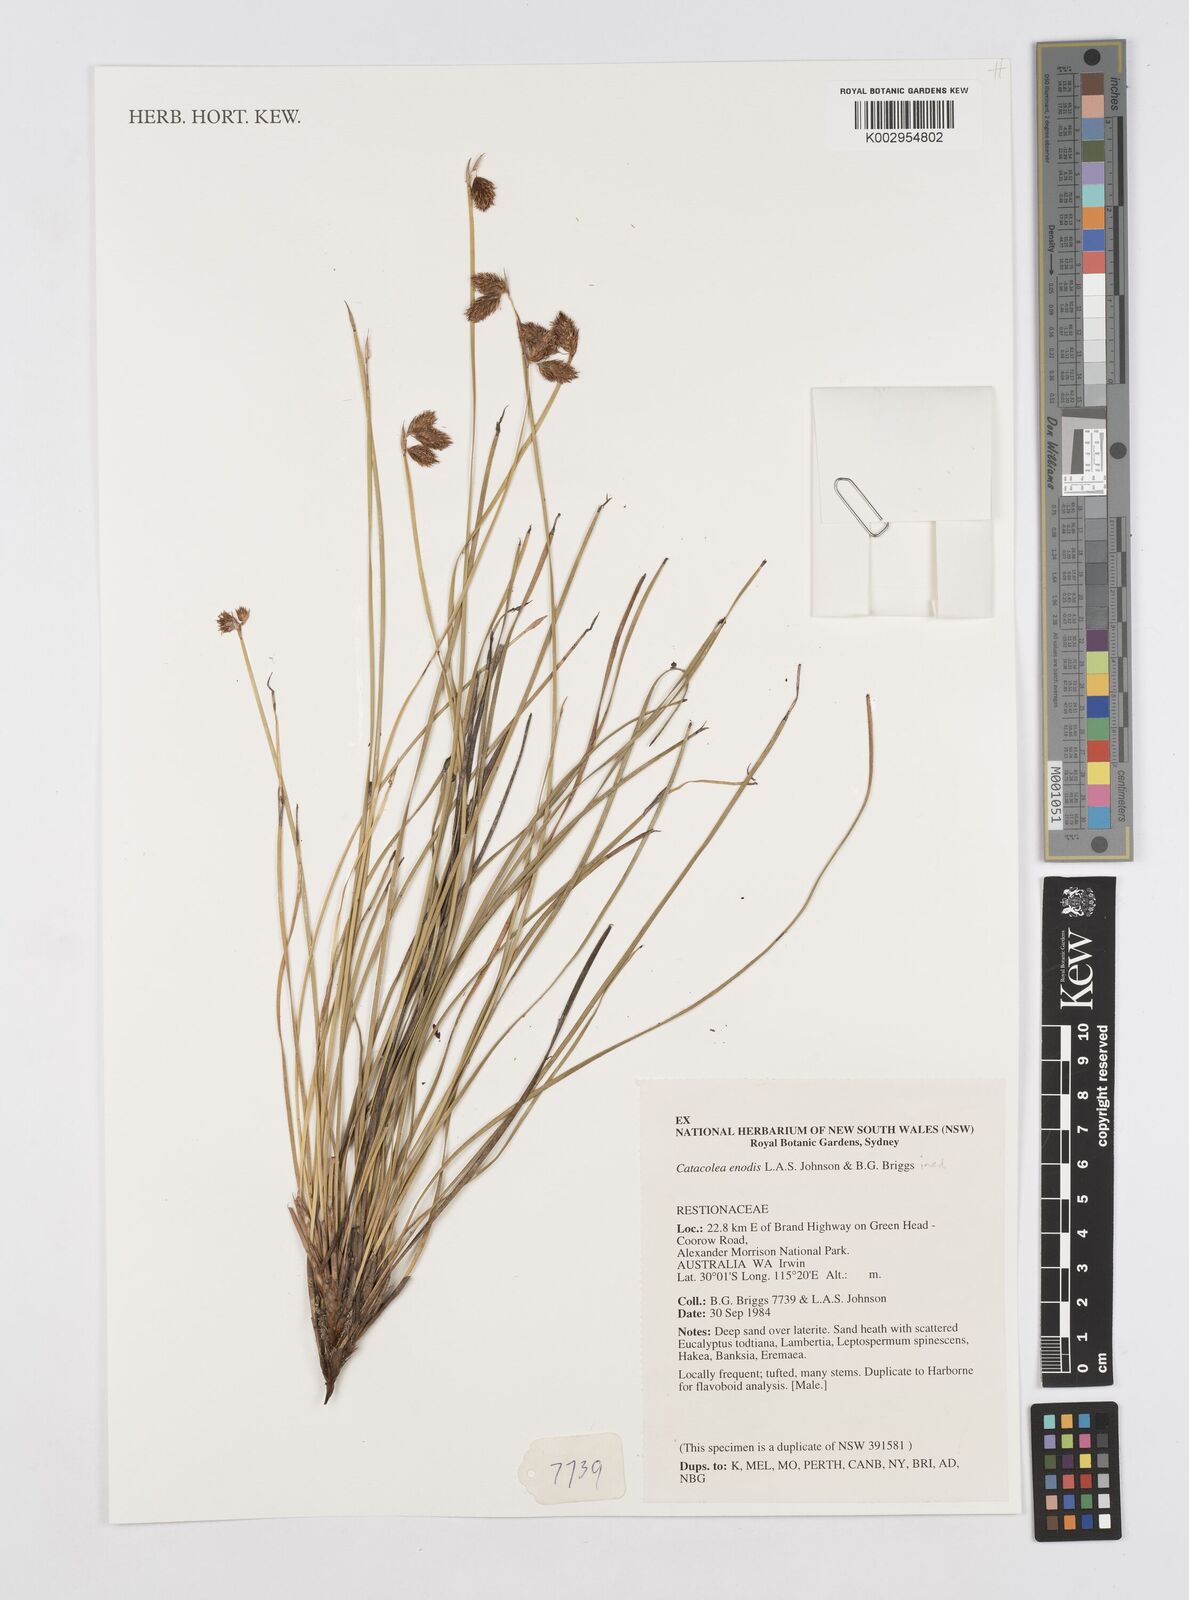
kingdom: Plantae
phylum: Tracheophyta
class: Liliopsida
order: Poales
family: Restionaceae
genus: Catacolea
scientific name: Catacolea enodis
